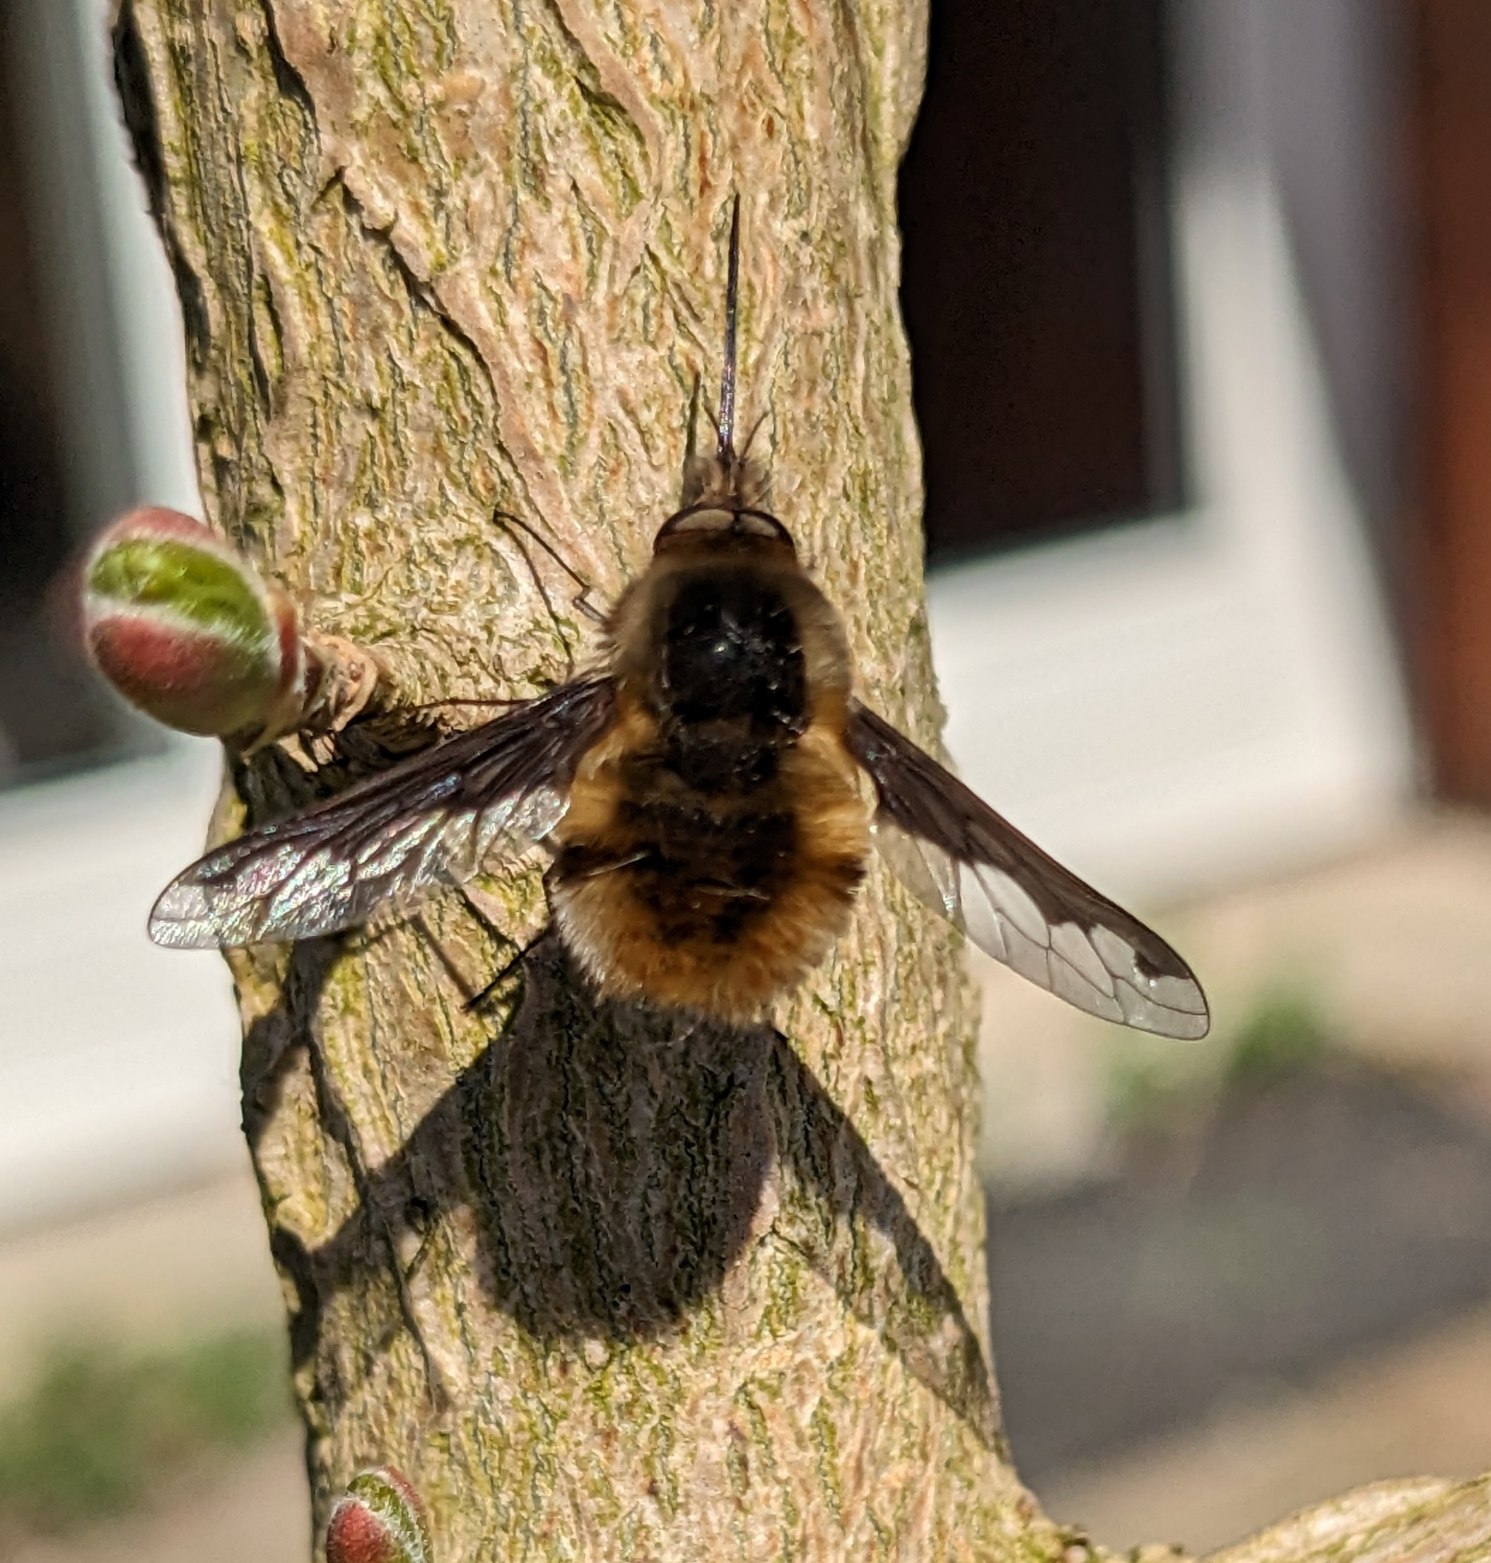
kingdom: Animalia
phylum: Arthropoda
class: Insecta
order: Diptera
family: Bombyliidae
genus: Bombylius
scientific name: Bombylius major
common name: Stor humleflue
